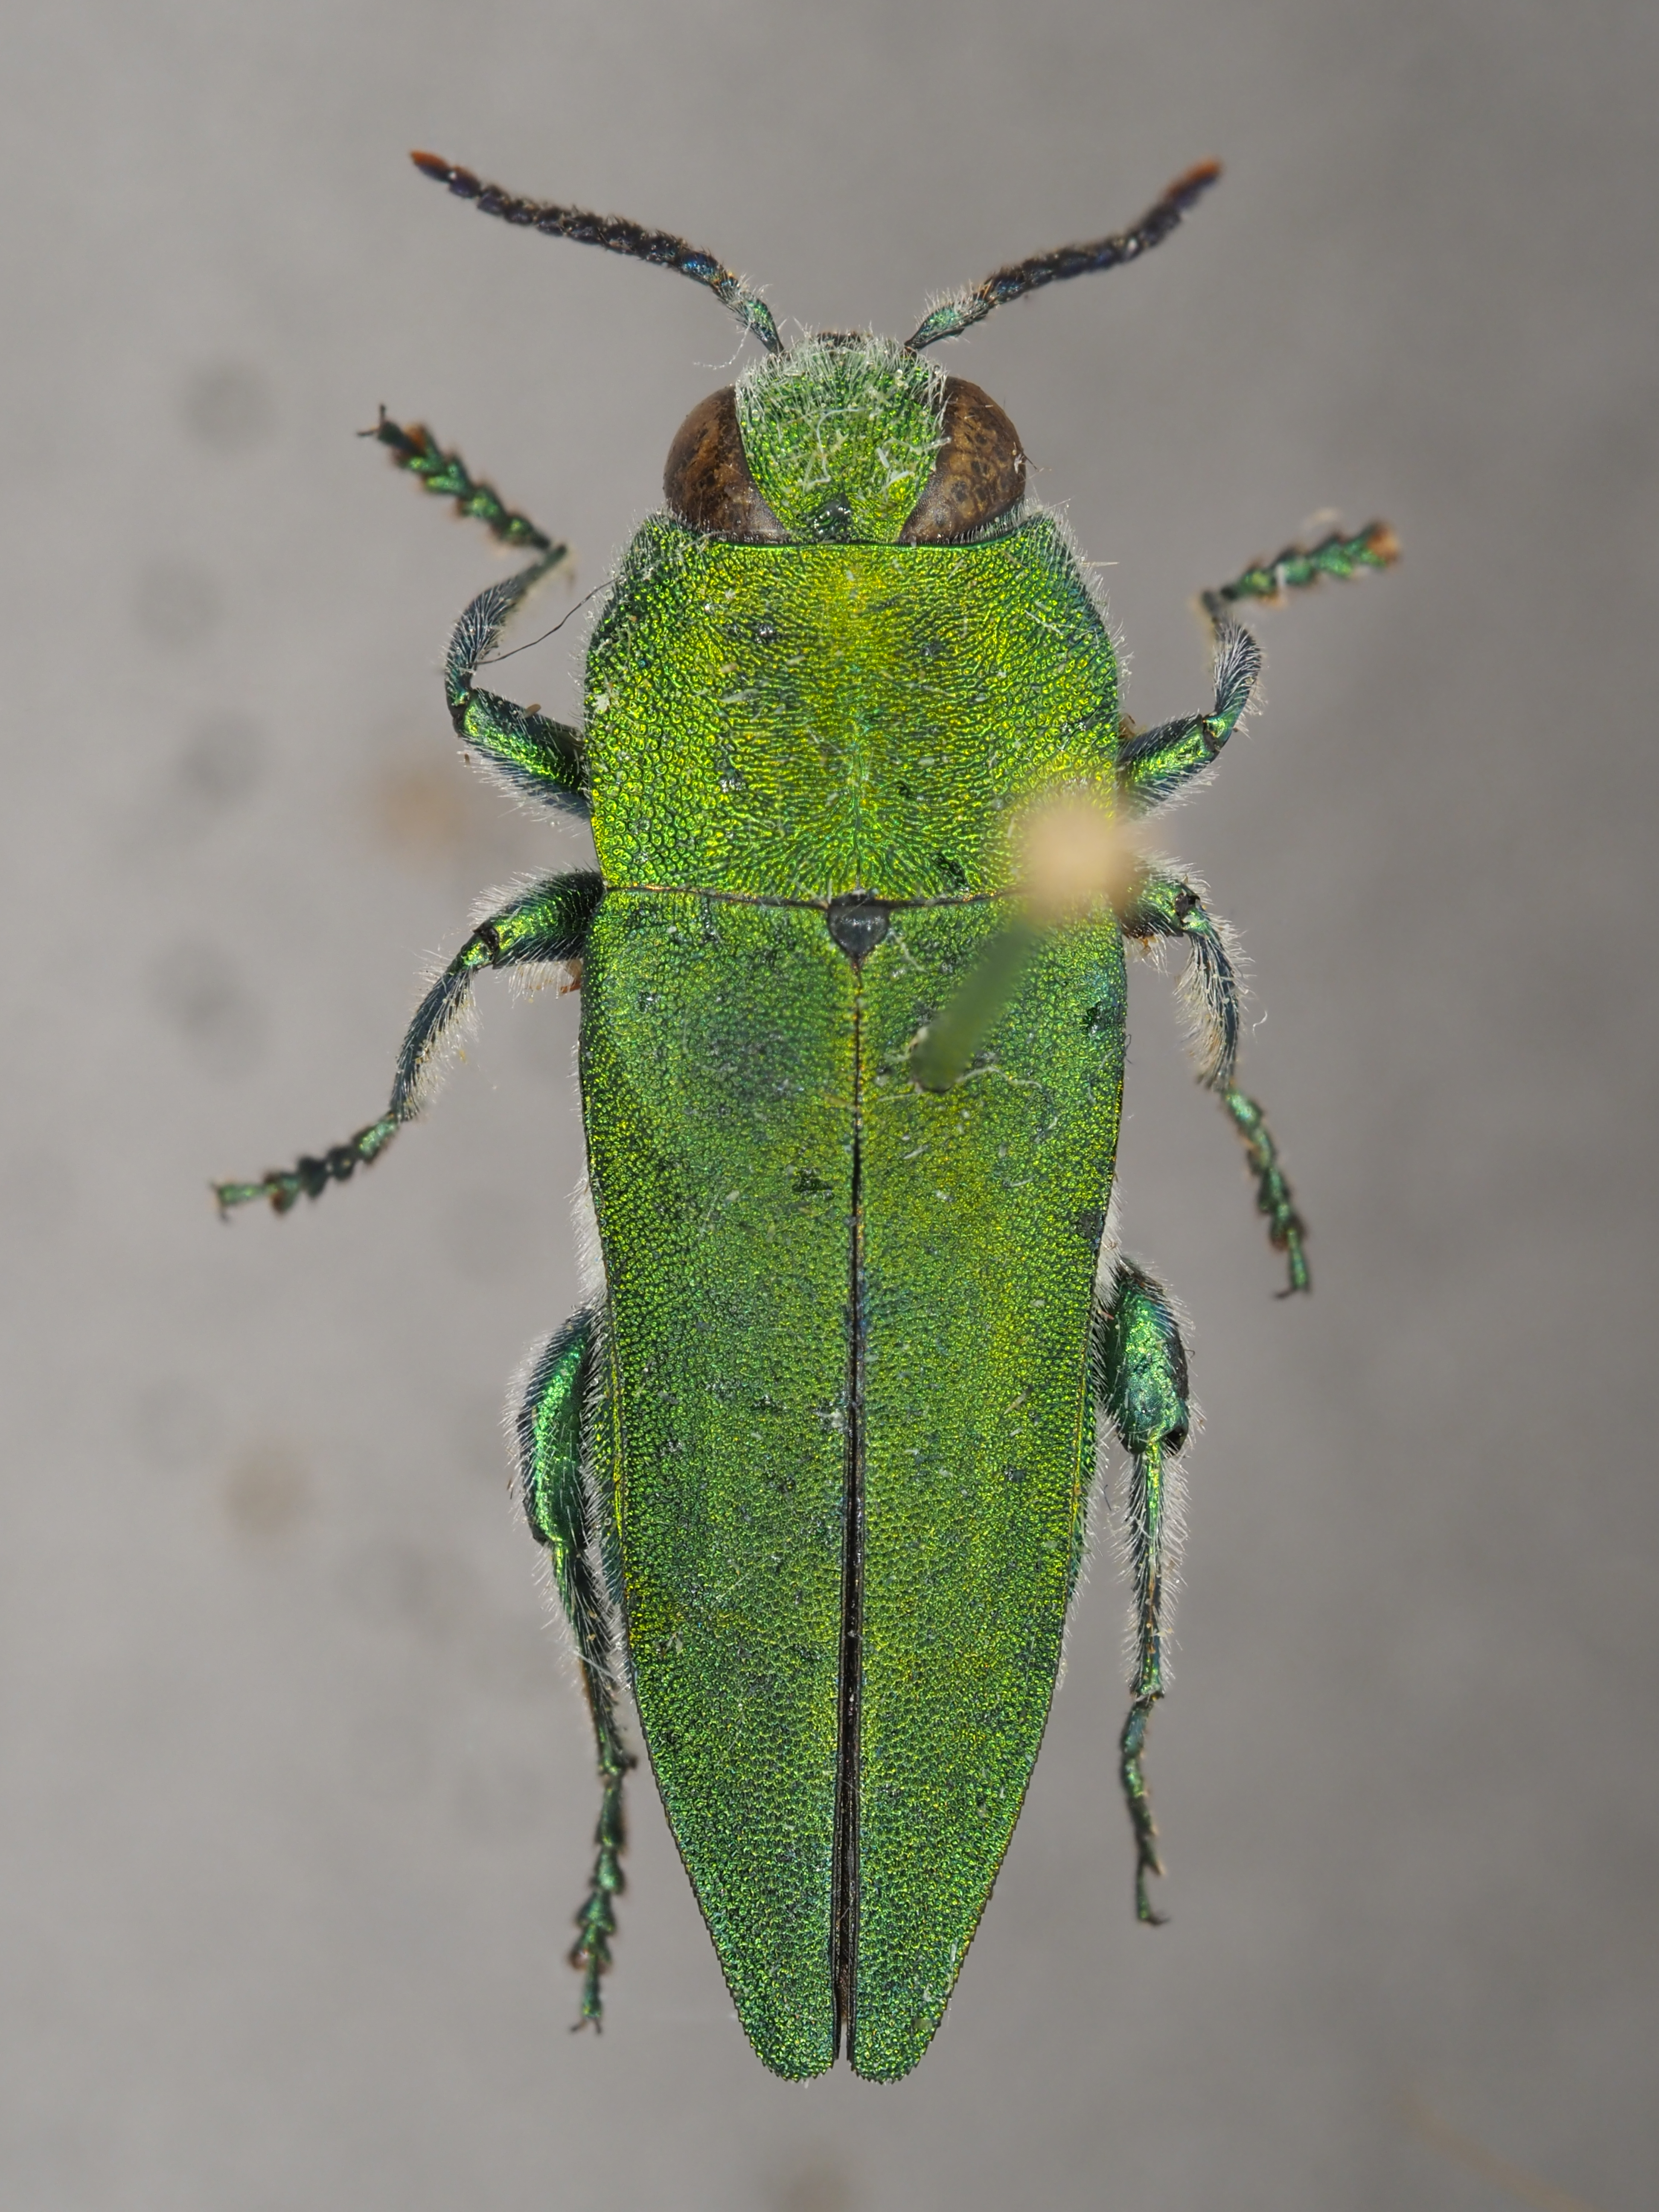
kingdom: Animalia
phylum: Arthropoda
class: Insecta
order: Coleoptera
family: Buprestidae
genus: Anthaxia
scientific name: Anthaxia hungarica
